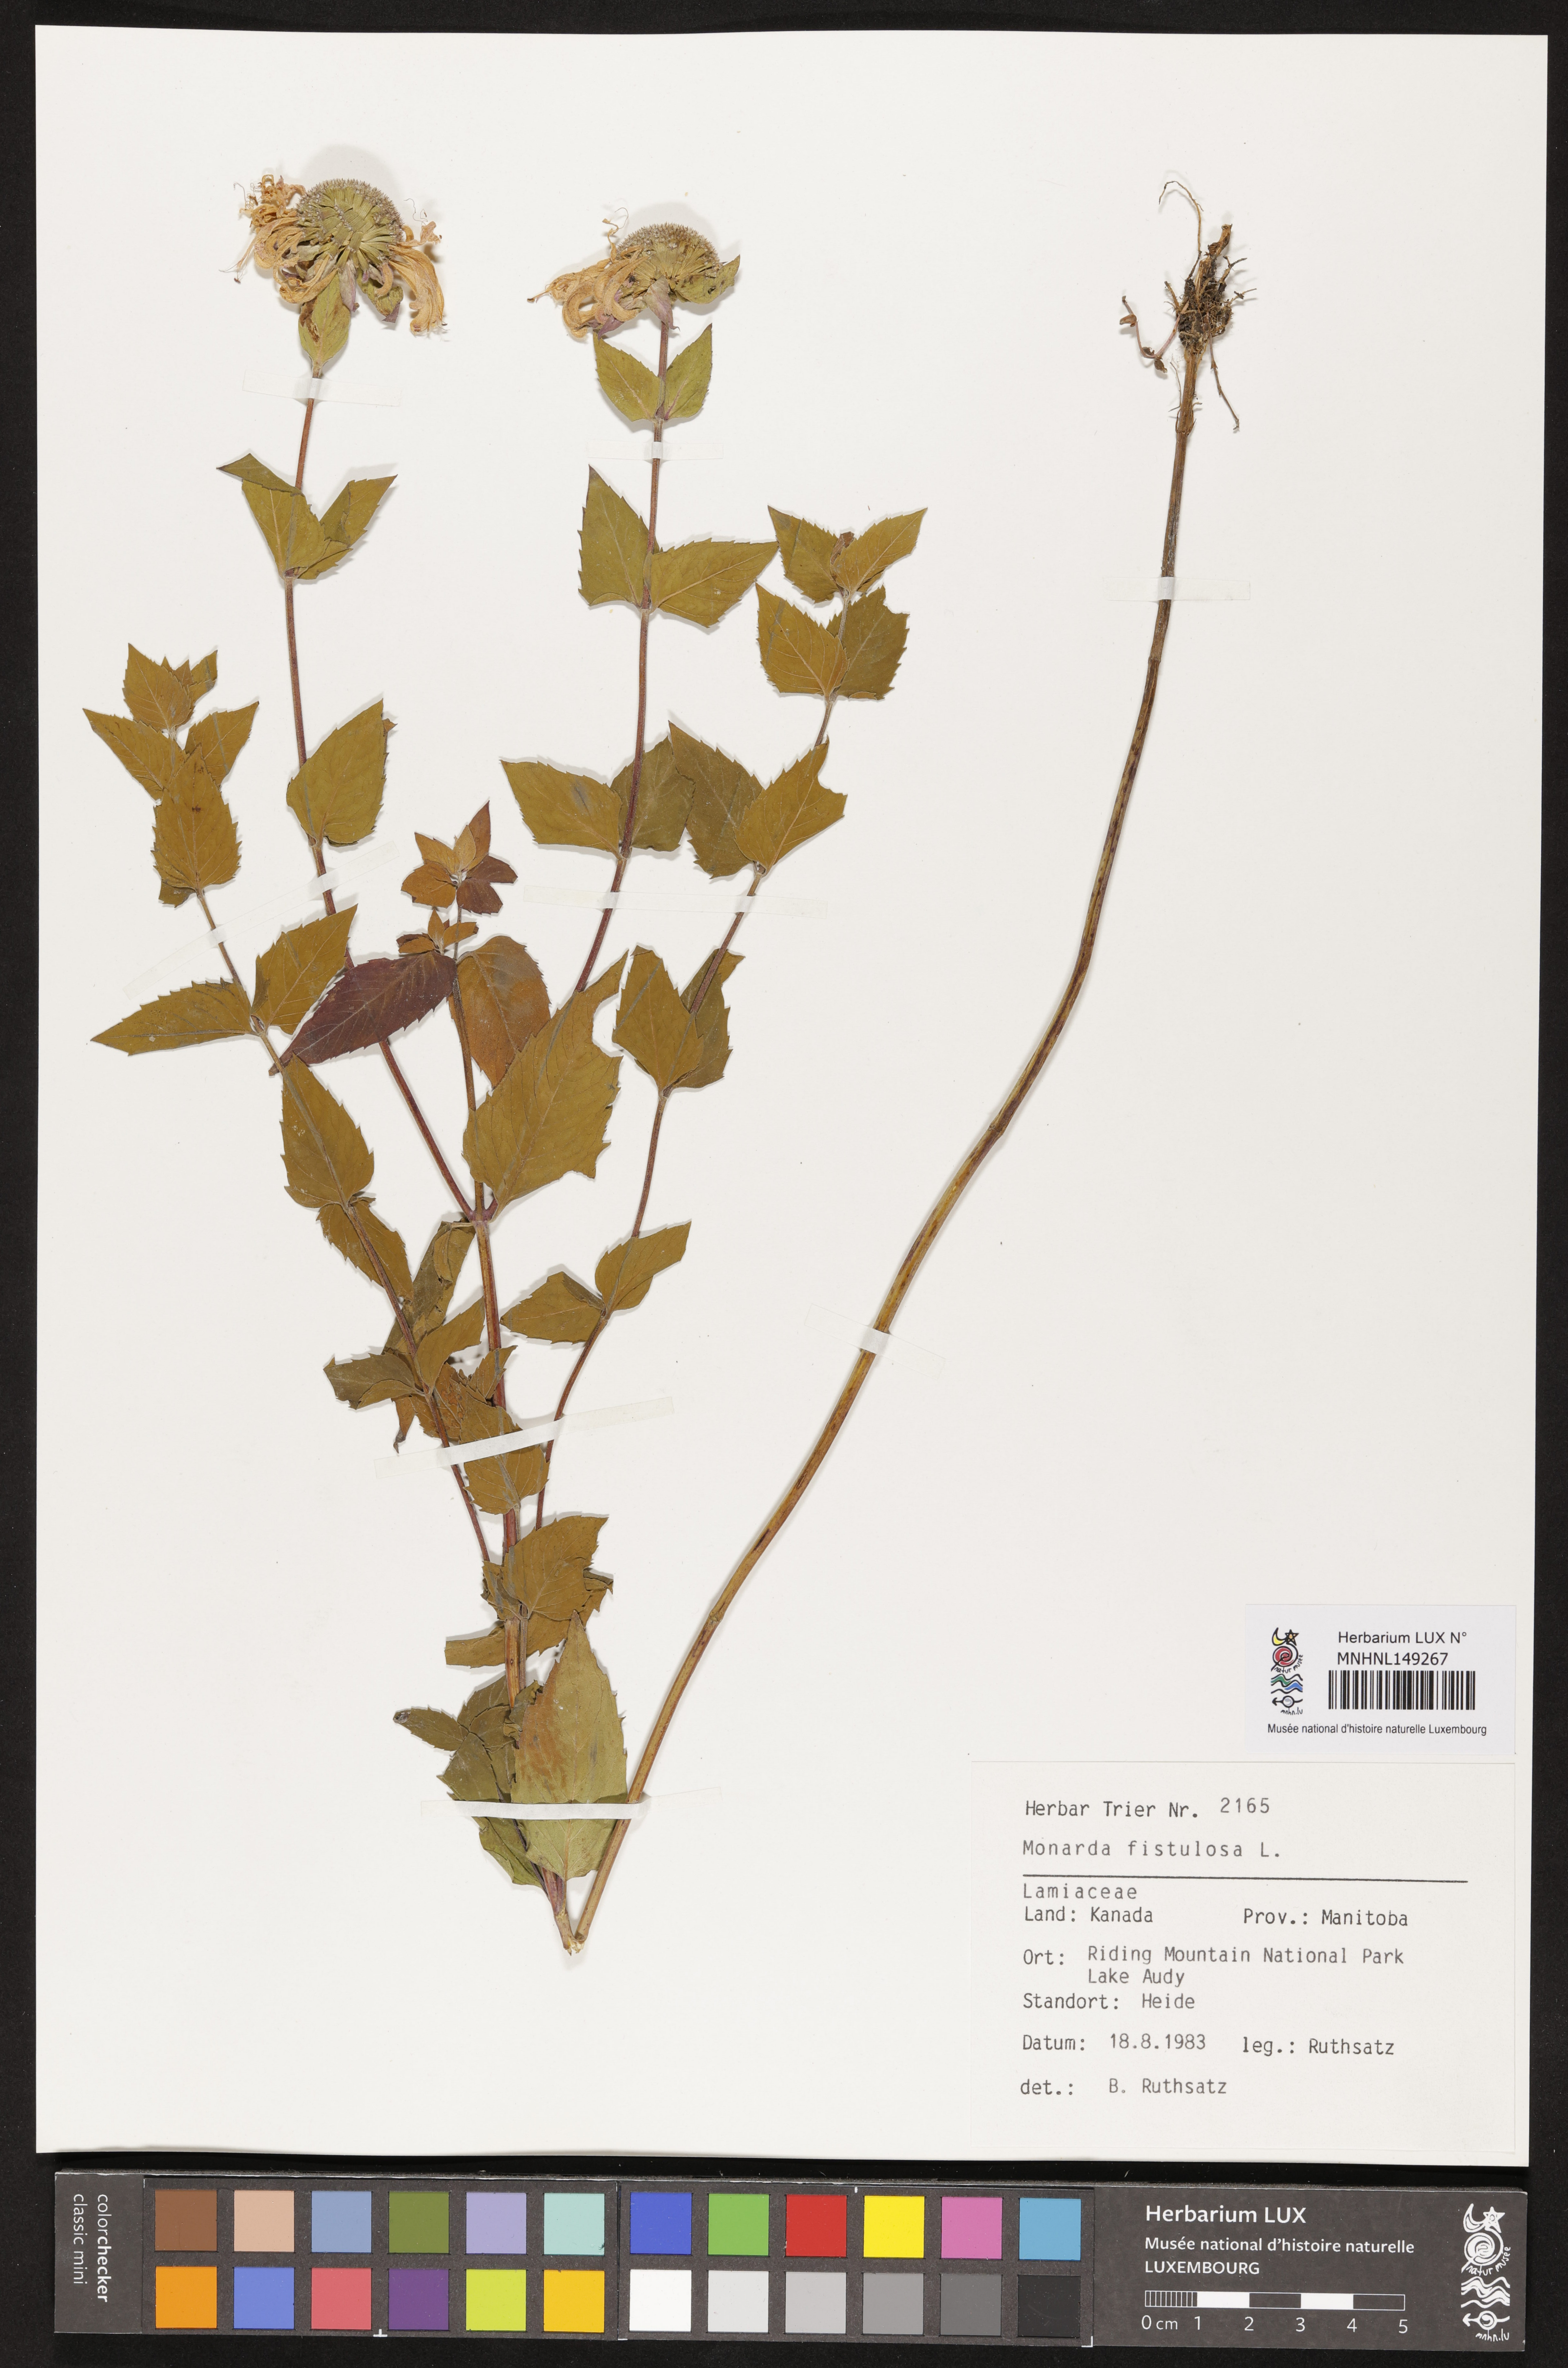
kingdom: Plantae
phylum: Tracheophyta
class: Magnoliopsida
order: Lamiales
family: Lamiaceae
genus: Monarda
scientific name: Monarda fistulosa
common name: Purple beebalm
